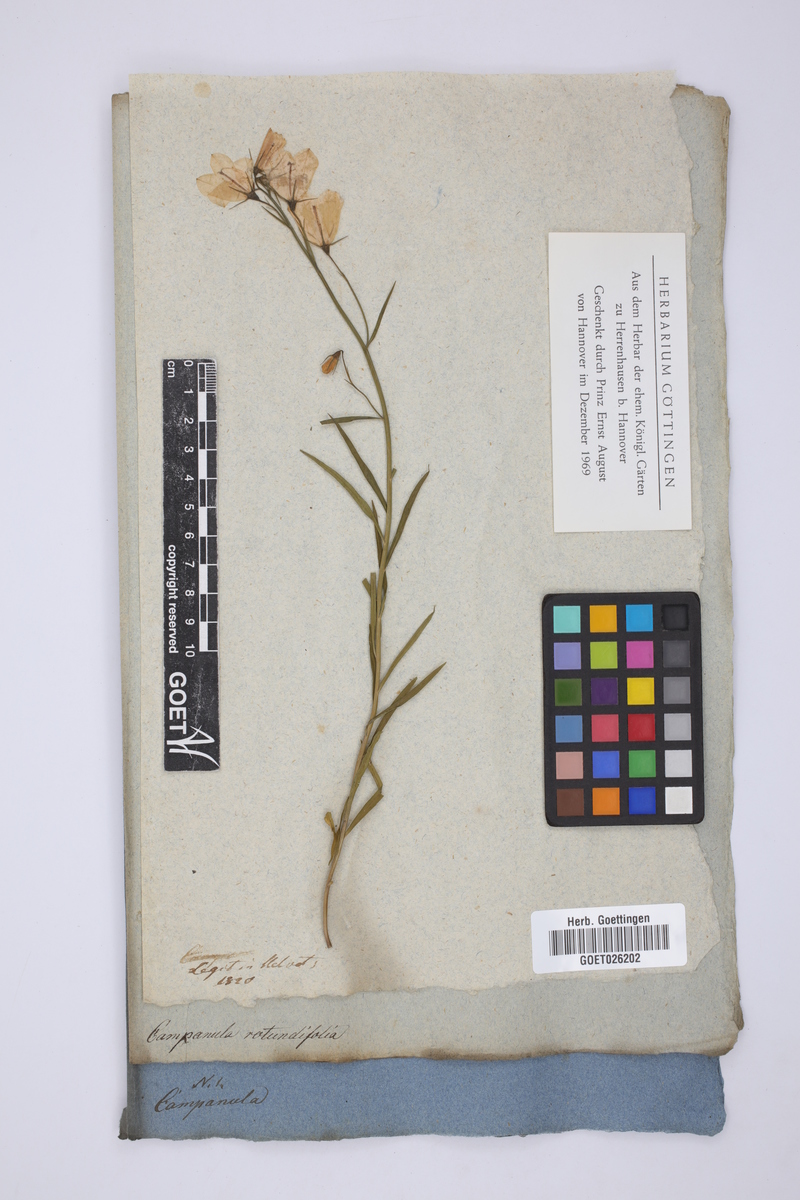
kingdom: Plantae
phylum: Tracheophyta
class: Magnoliopsida
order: Asterales
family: Campanulaceae
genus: Campanula
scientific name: Campanula rotundifolia
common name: Harebell
